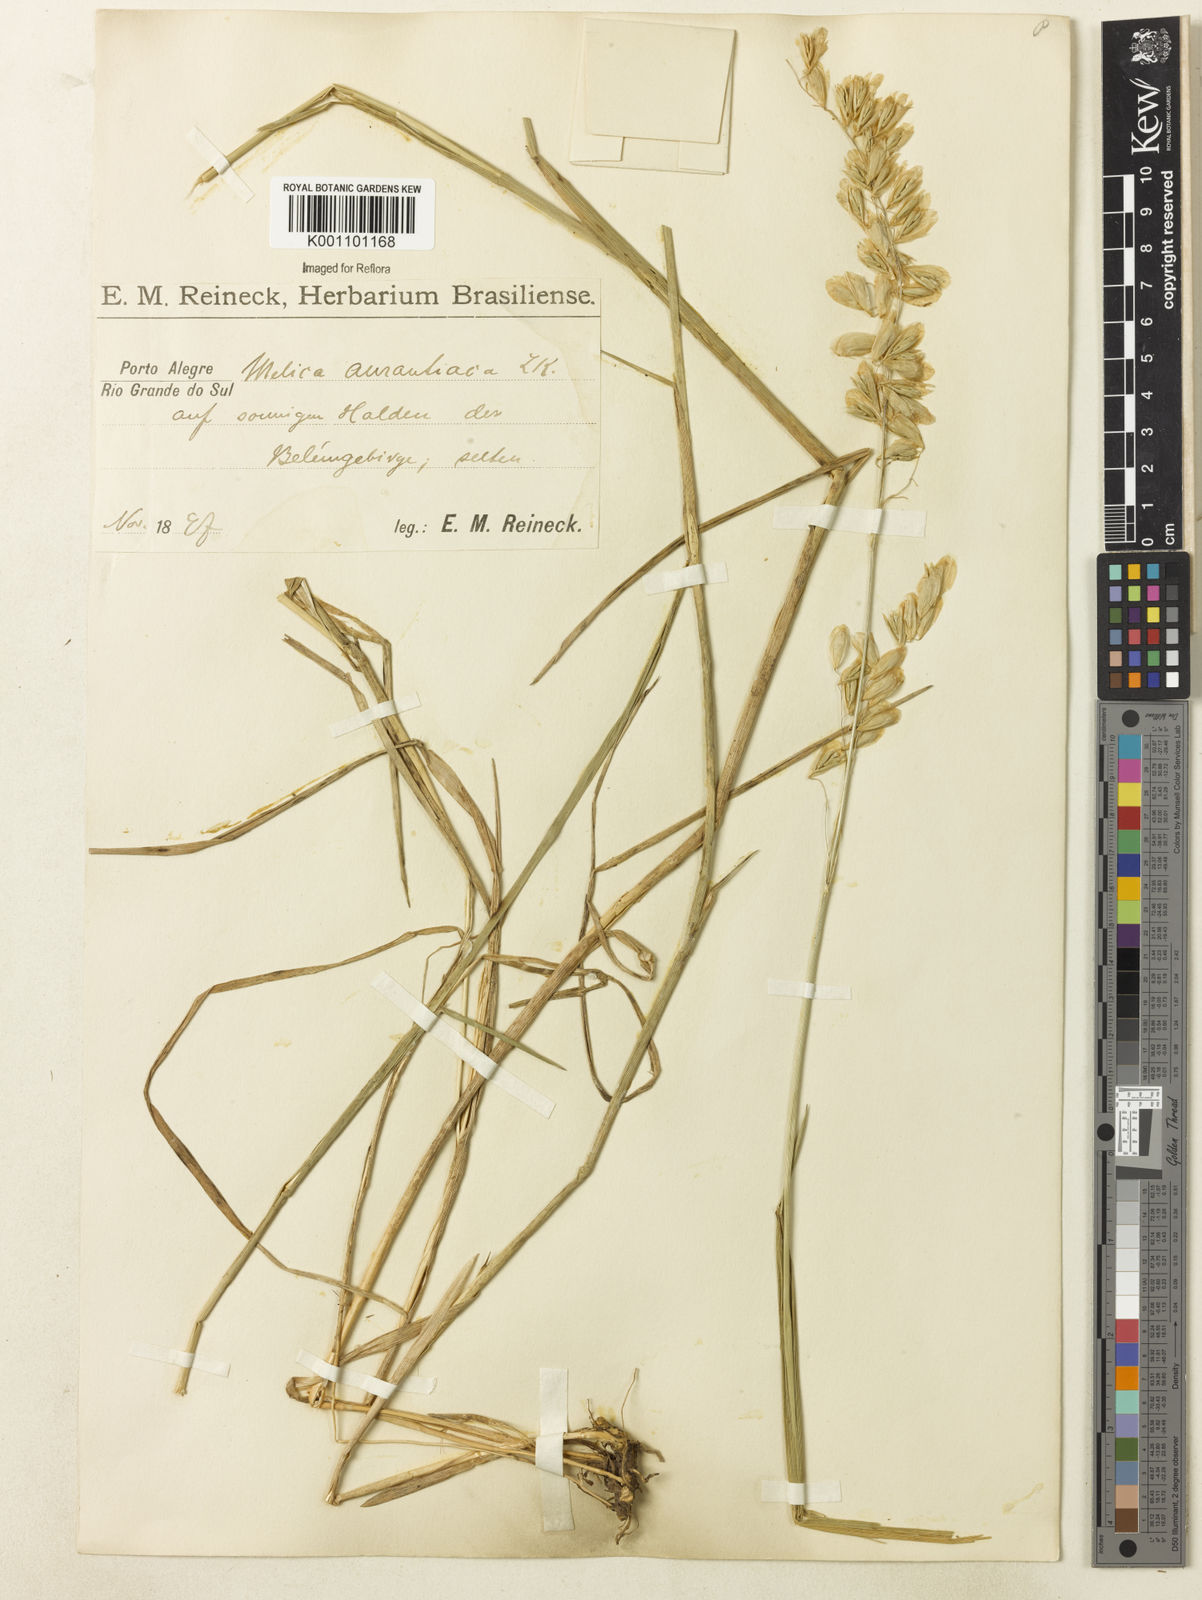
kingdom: Plantae
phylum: Tracheophyta
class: Liliopsida
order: Poales
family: Poaceae
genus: Melica
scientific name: Melica brasiliana
